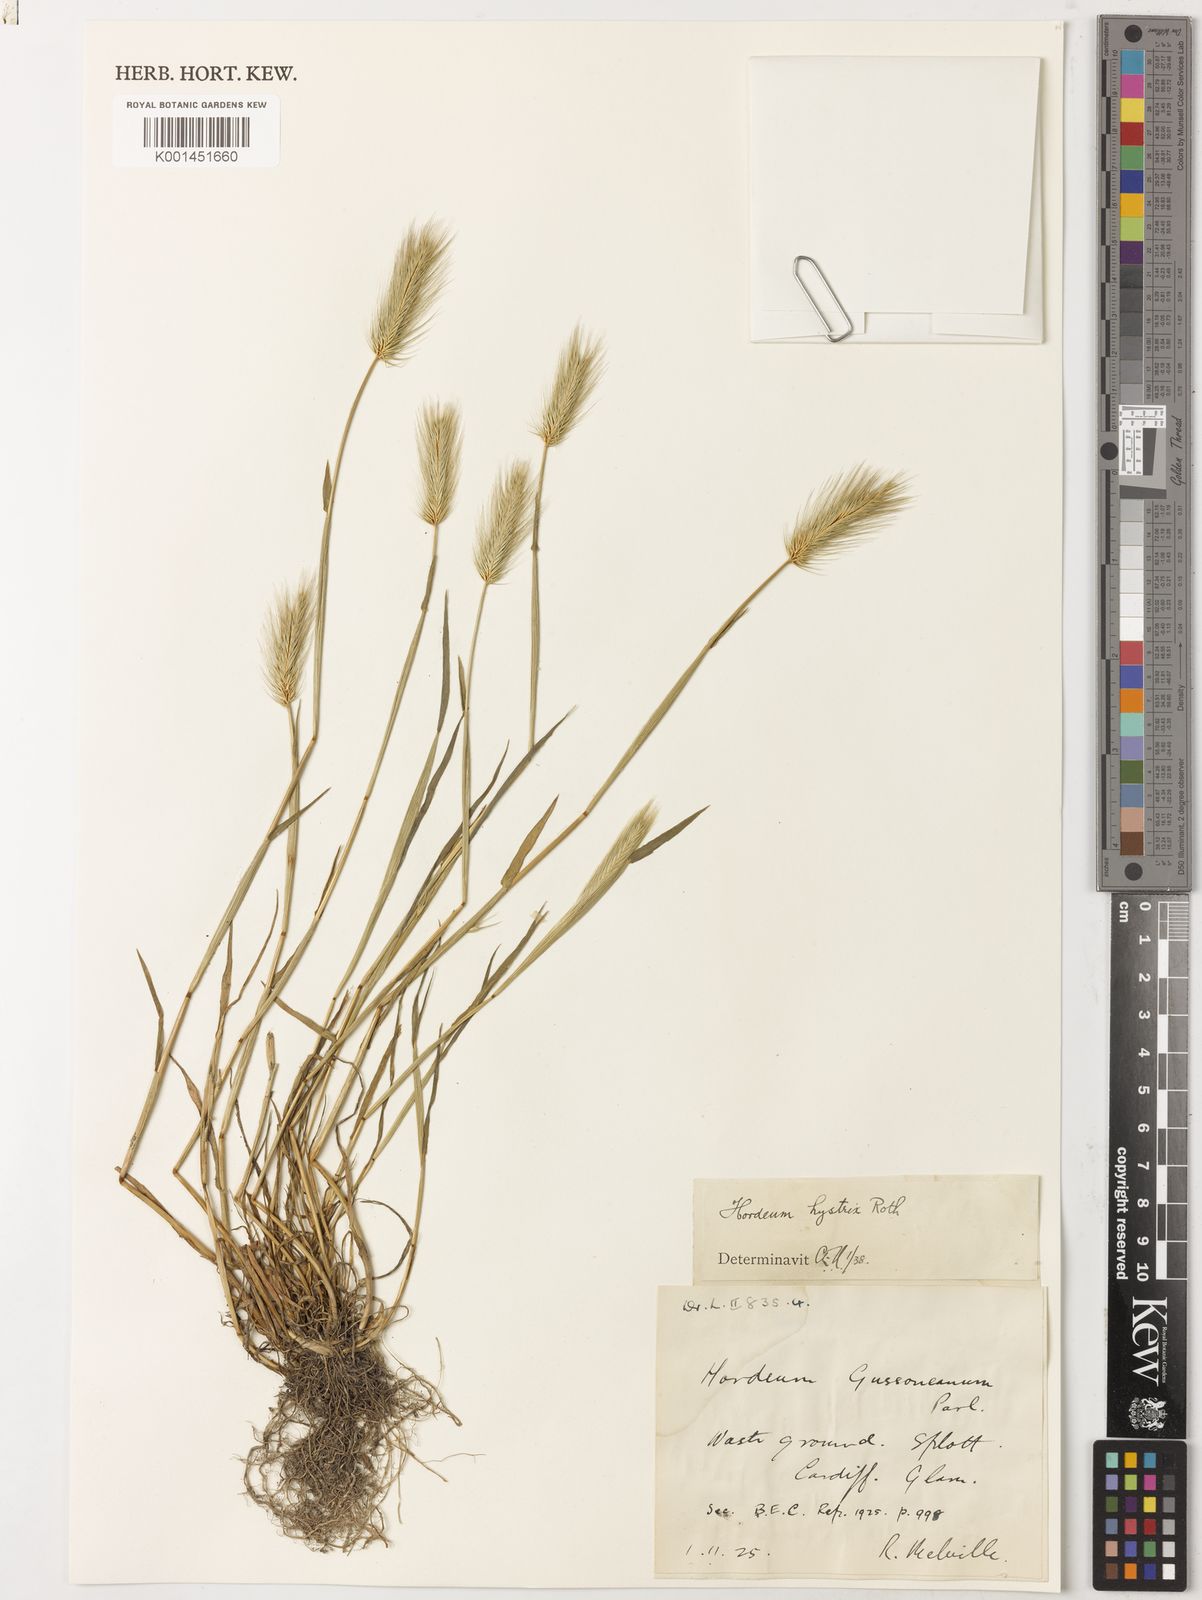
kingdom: Plantae
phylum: Tracheophyta
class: Liliopsida
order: Poales
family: Poaceae
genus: Hordeum
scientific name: Hordeum marinum
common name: Sea barley
